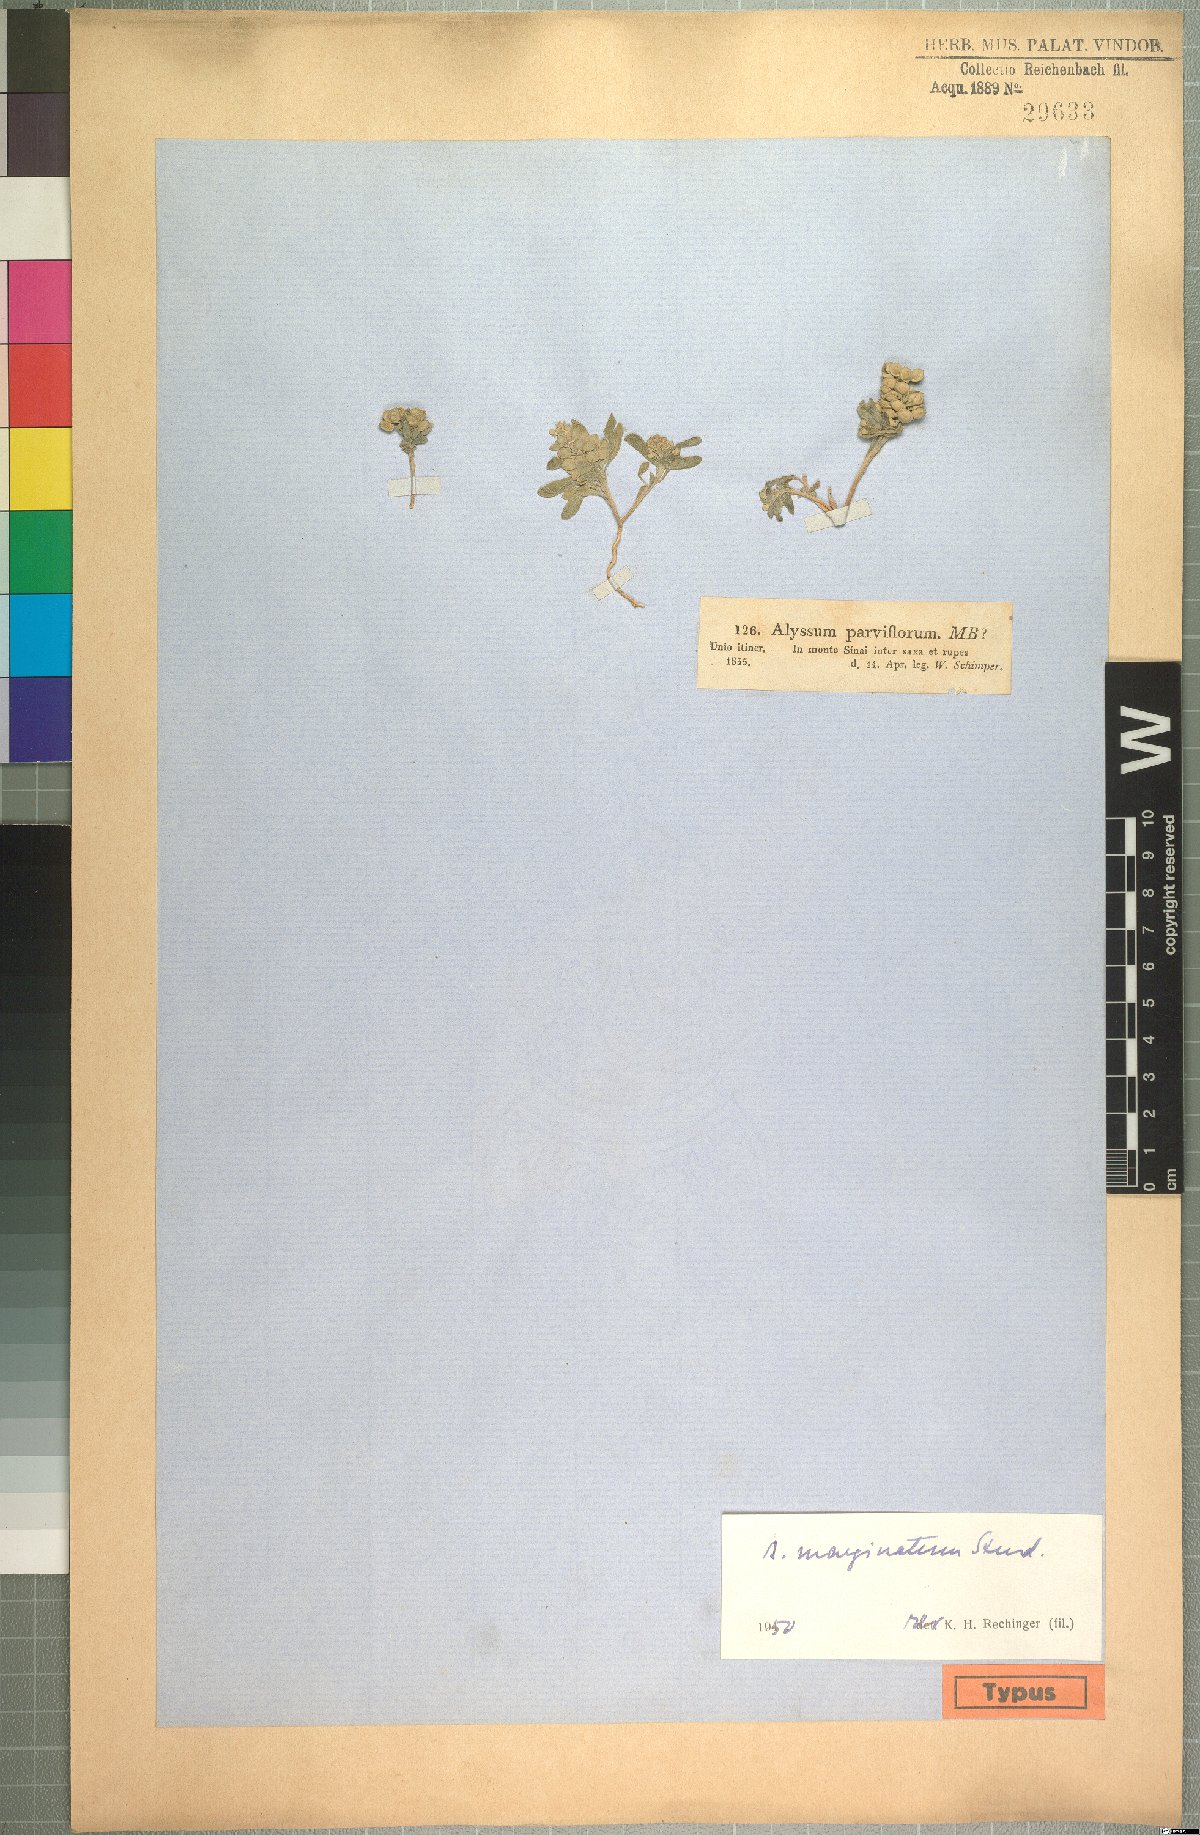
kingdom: Plantae
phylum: Tracheophyta
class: Magnoliopsida
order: Brassicales
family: Brassicaceae
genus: Alyssum
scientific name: Alyssum szovitsianum
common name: Szowits' madwort
